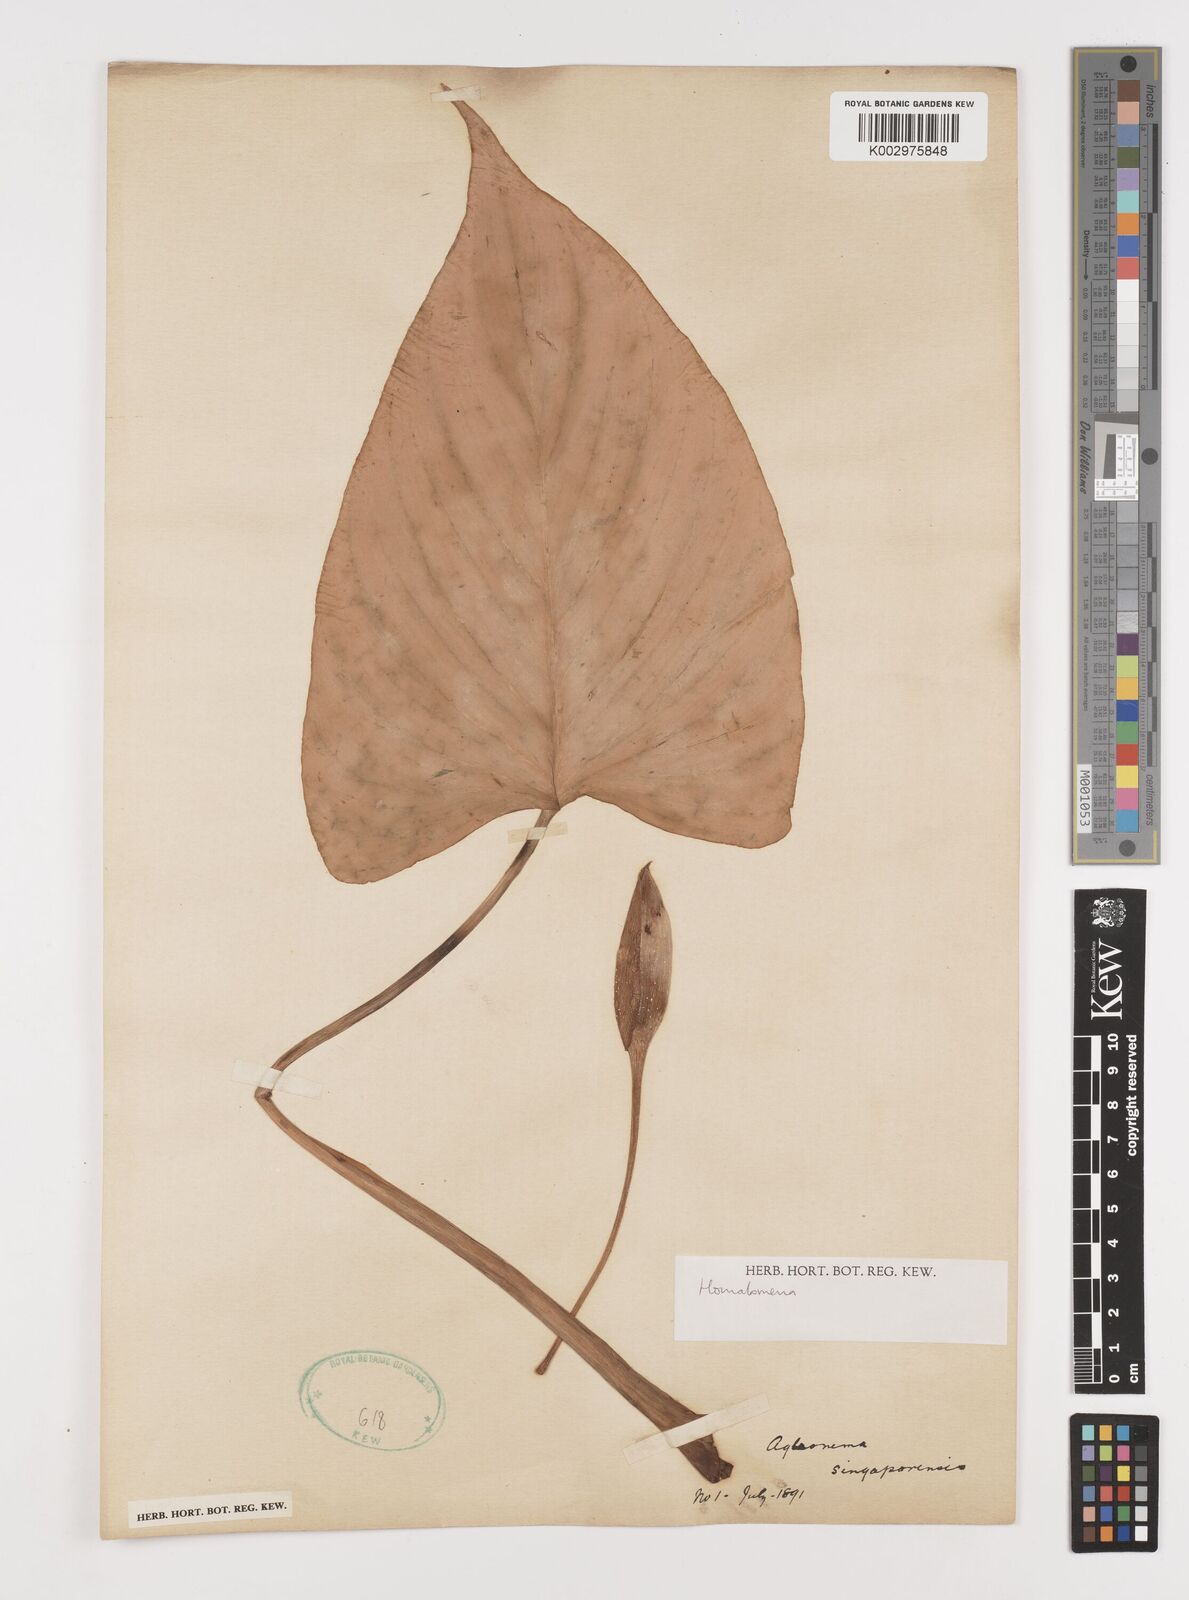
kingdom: Plantae
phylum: Tracheophyta
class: Liliopsida
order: Alismatales
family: Araceae
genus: Homalomena
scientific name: Homalomena
